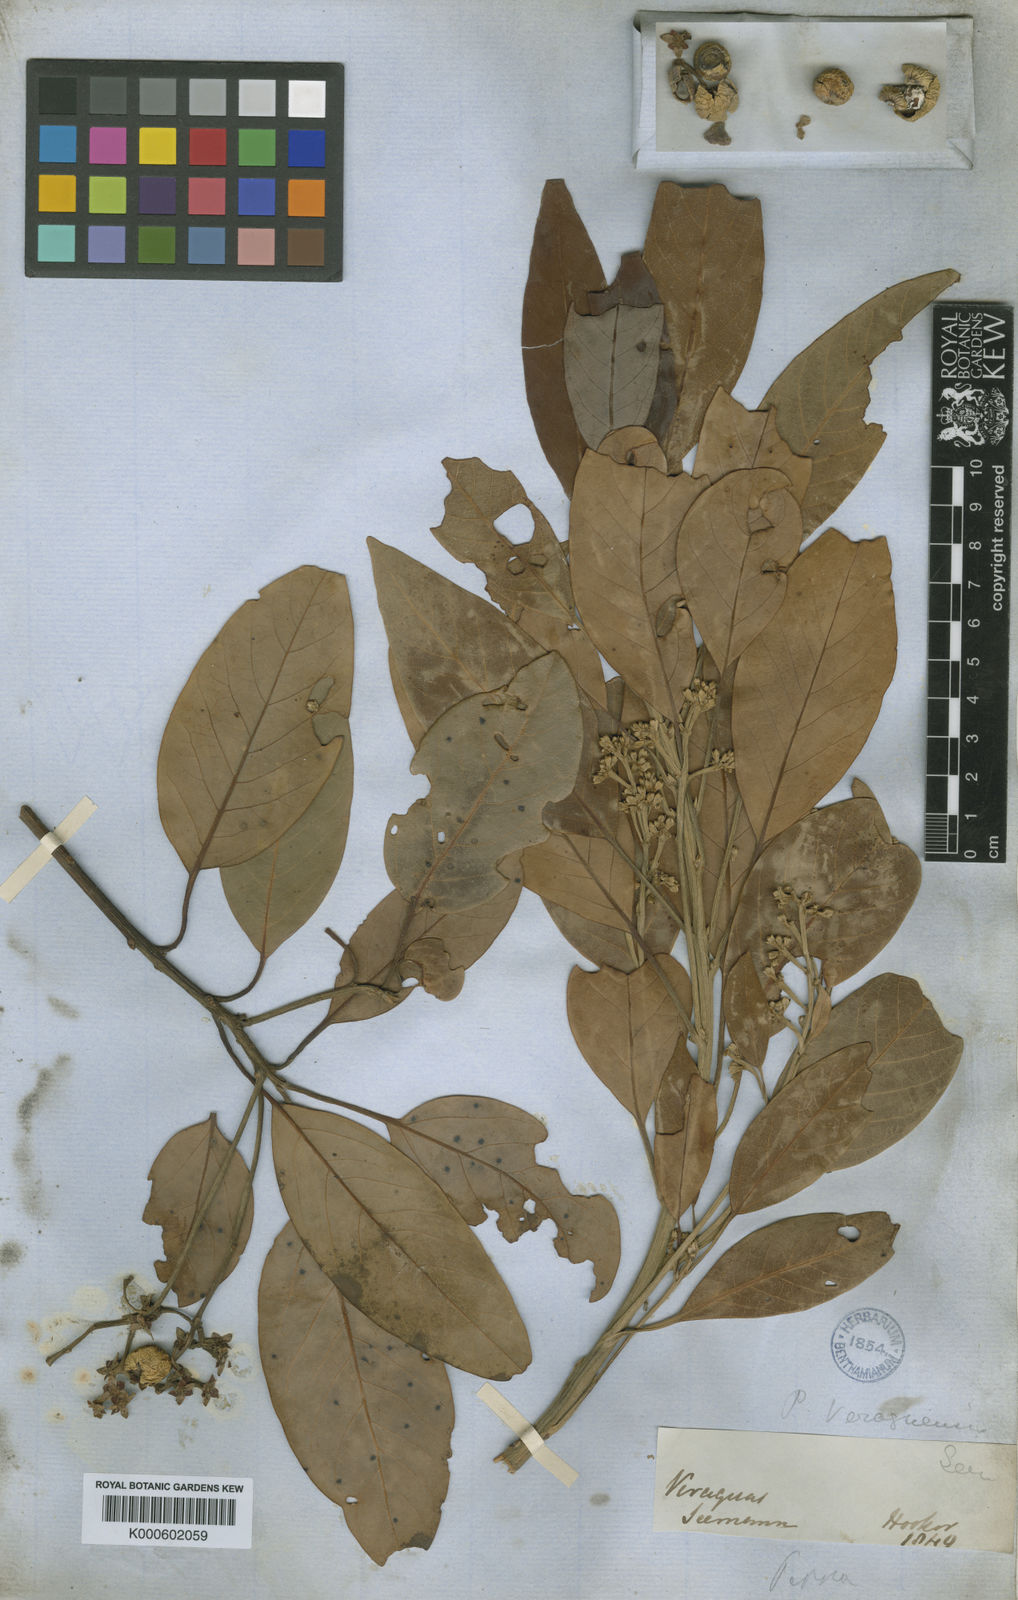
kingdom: Plantae
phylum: Tracheophyta
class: Magnoliopsida
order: Laurales
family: Lauraceae
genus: Persea
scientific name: Persea veraguasensis
